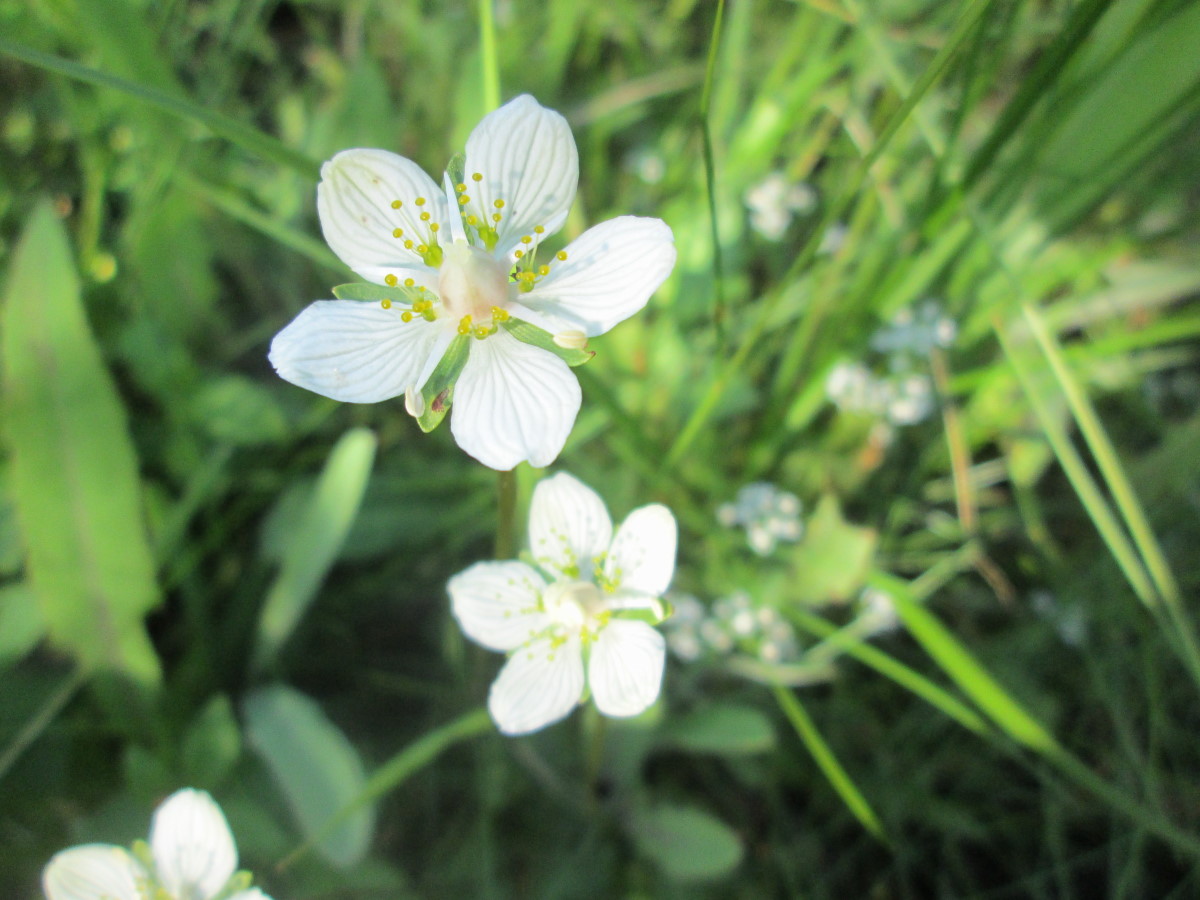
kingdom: Plantae
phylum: Tracheophyta
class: Magnoliopsida
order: Celastrales
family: Parnassiaceae
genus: Parnassia
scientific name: Parnassia palustris
